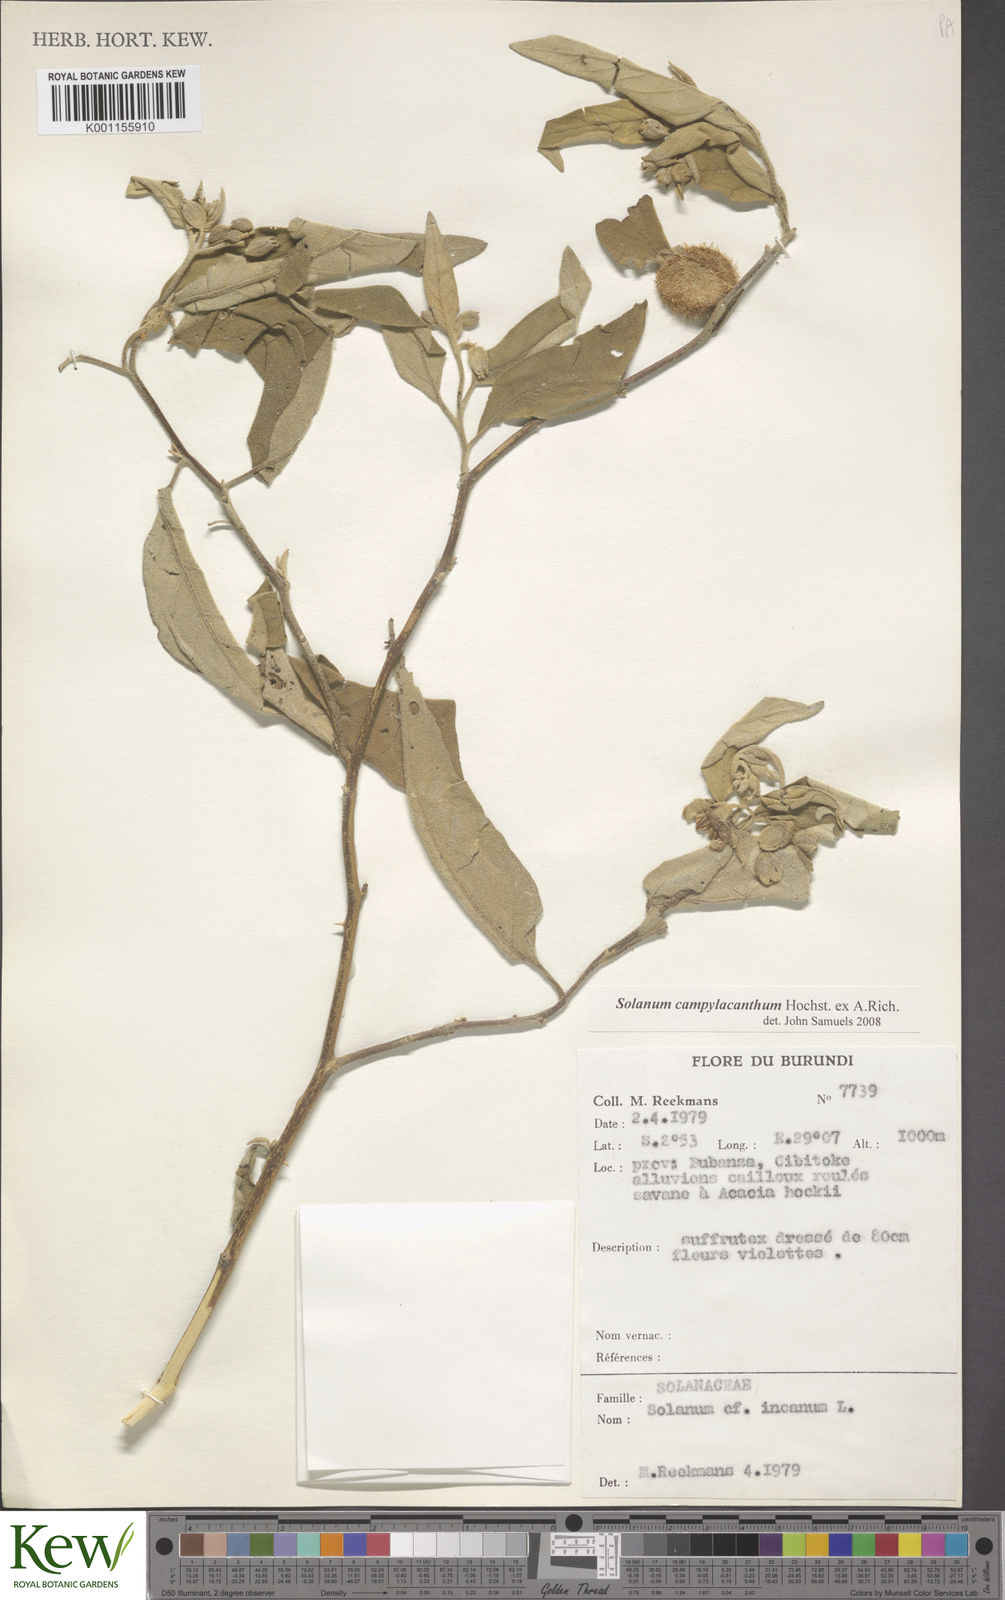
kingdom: Plantae
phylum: Tracheophyta
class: Magnoliopsida
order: Solanales
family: Solanaceae
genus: Solanum
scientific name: Solanum campylacanthum
